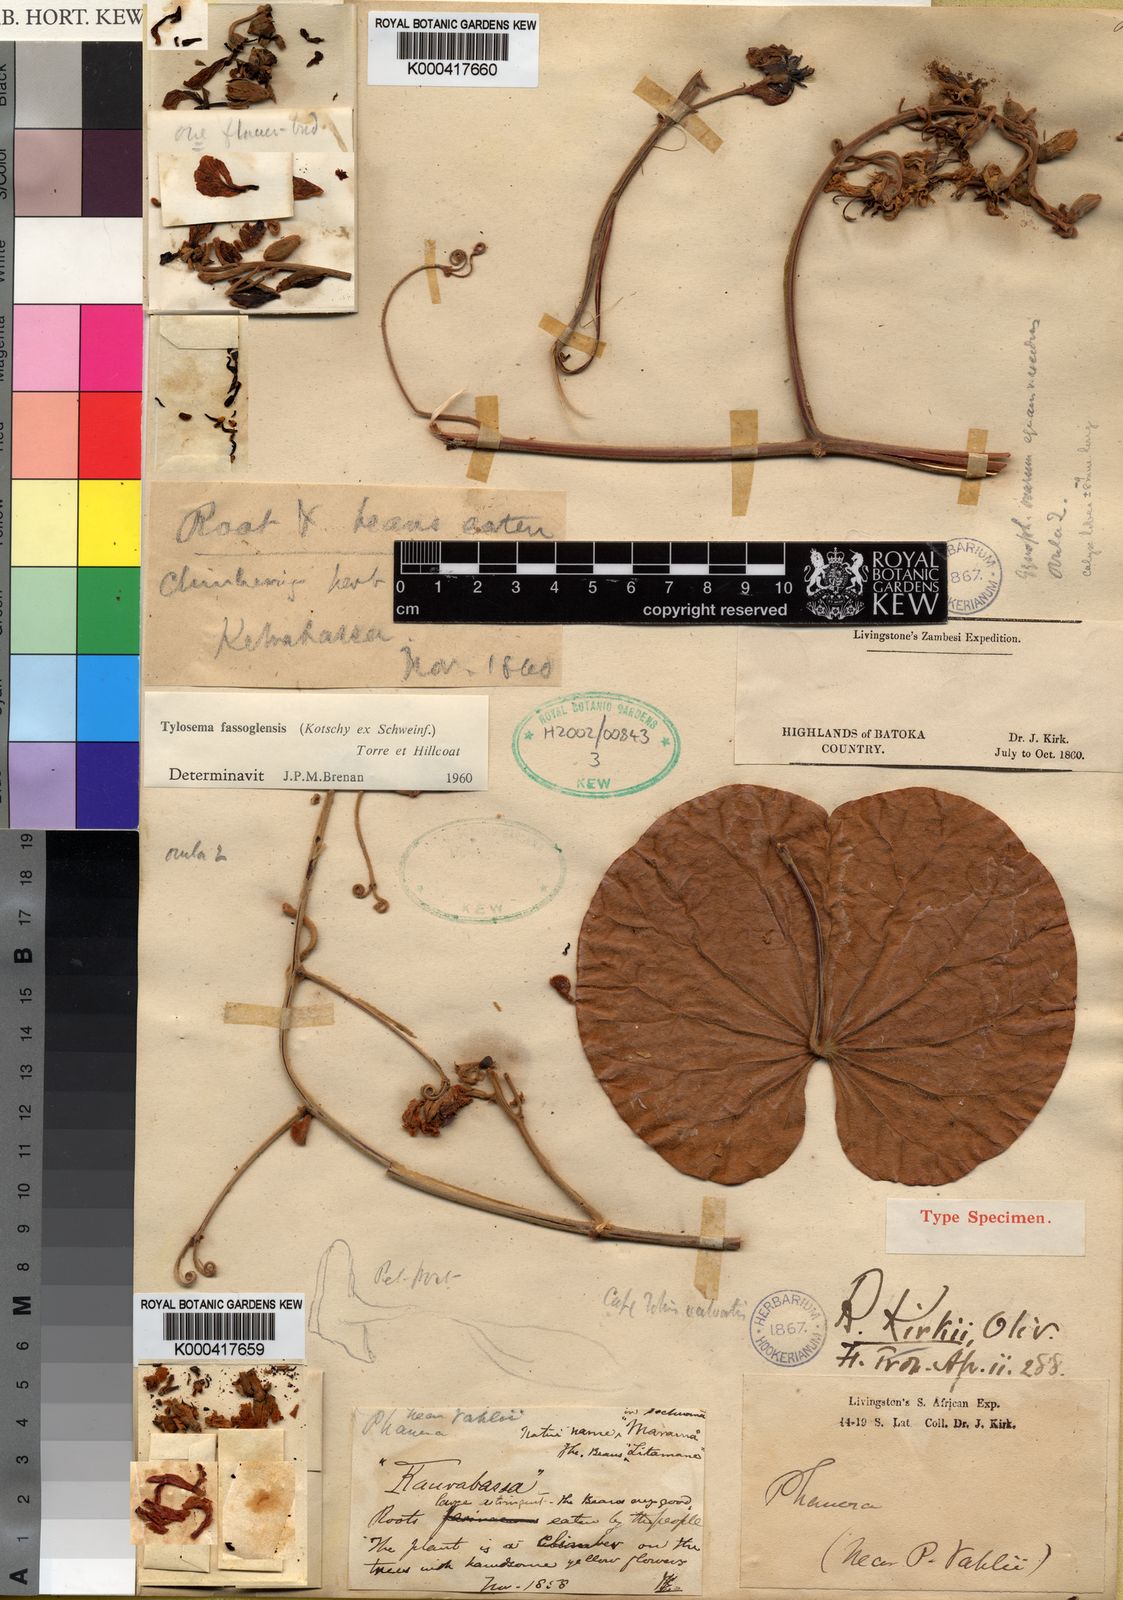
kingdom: Plantae
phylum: Tracheophyta
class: Magnoliopsida
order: Fabales
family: Fabaceae
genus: Tylosema
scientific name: Tylosema fassoglense
